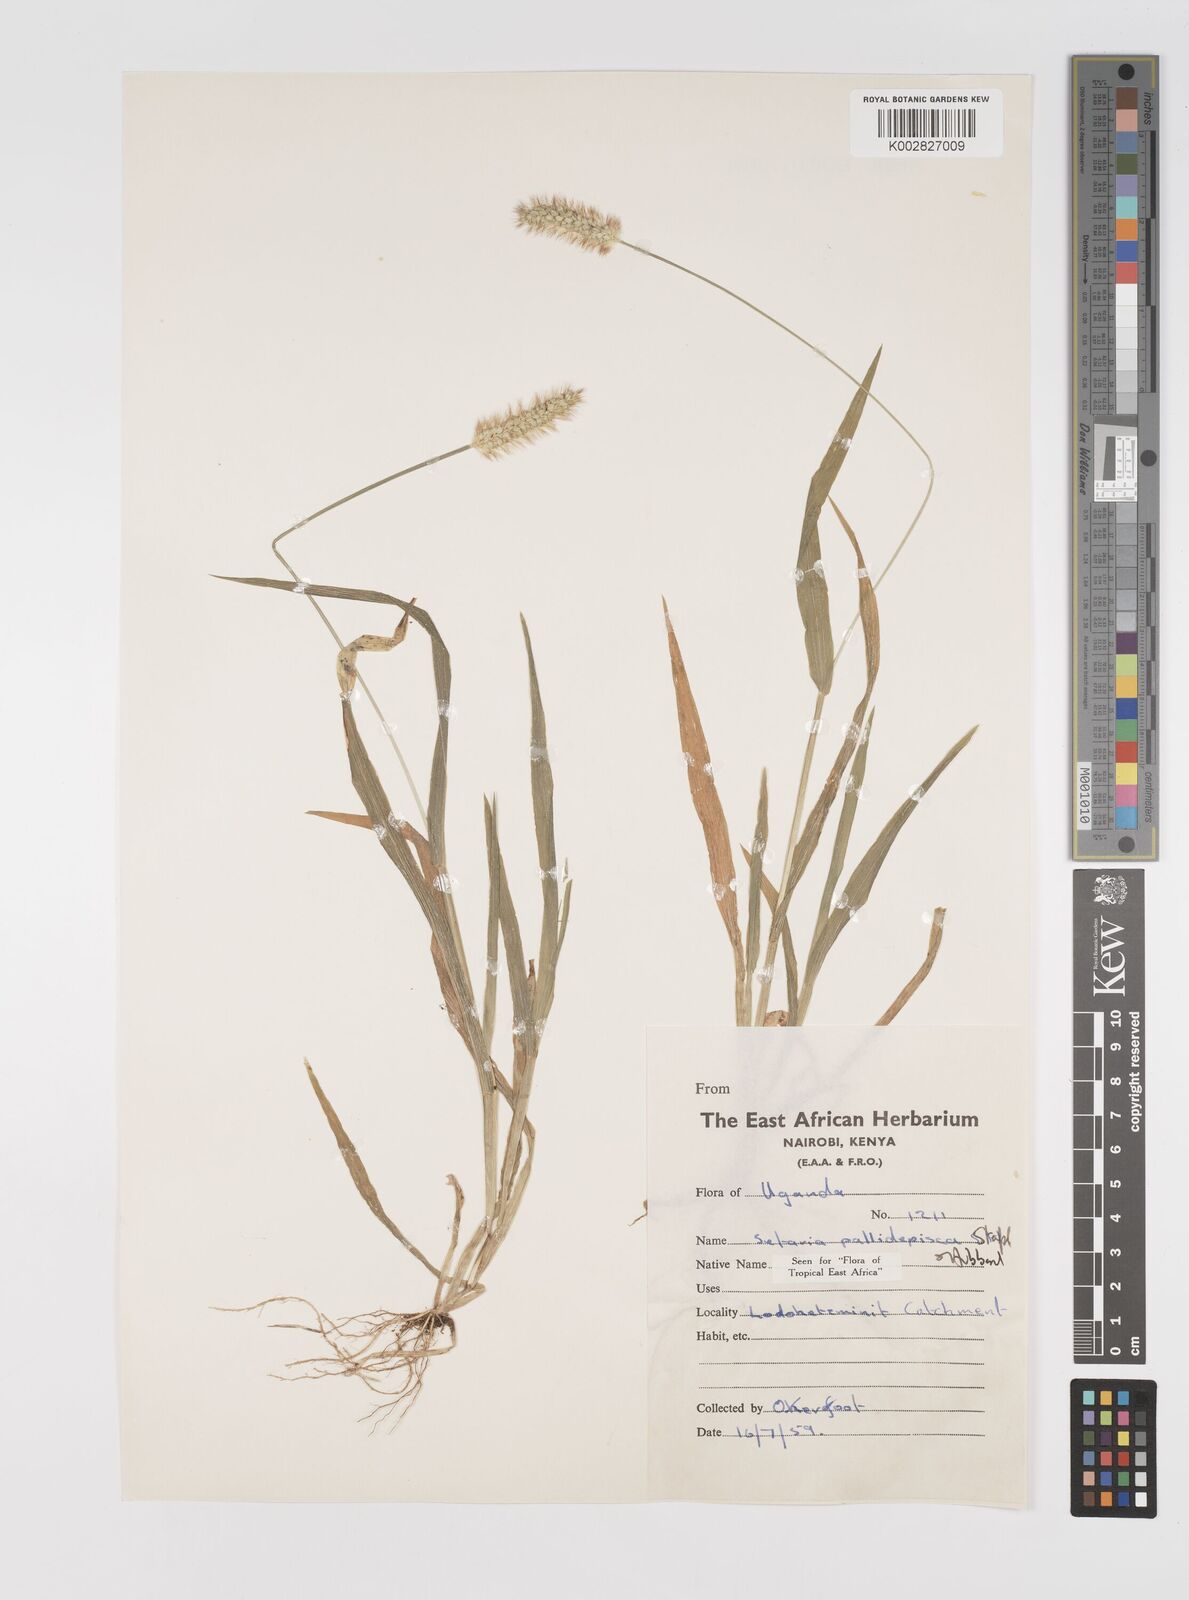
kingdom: Plantae
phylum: Tracheophyta
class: Liliopsida
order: Poales
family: Poaceae
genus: Setaria
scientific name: Setaria pumila
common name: Yellow bristle-grass
